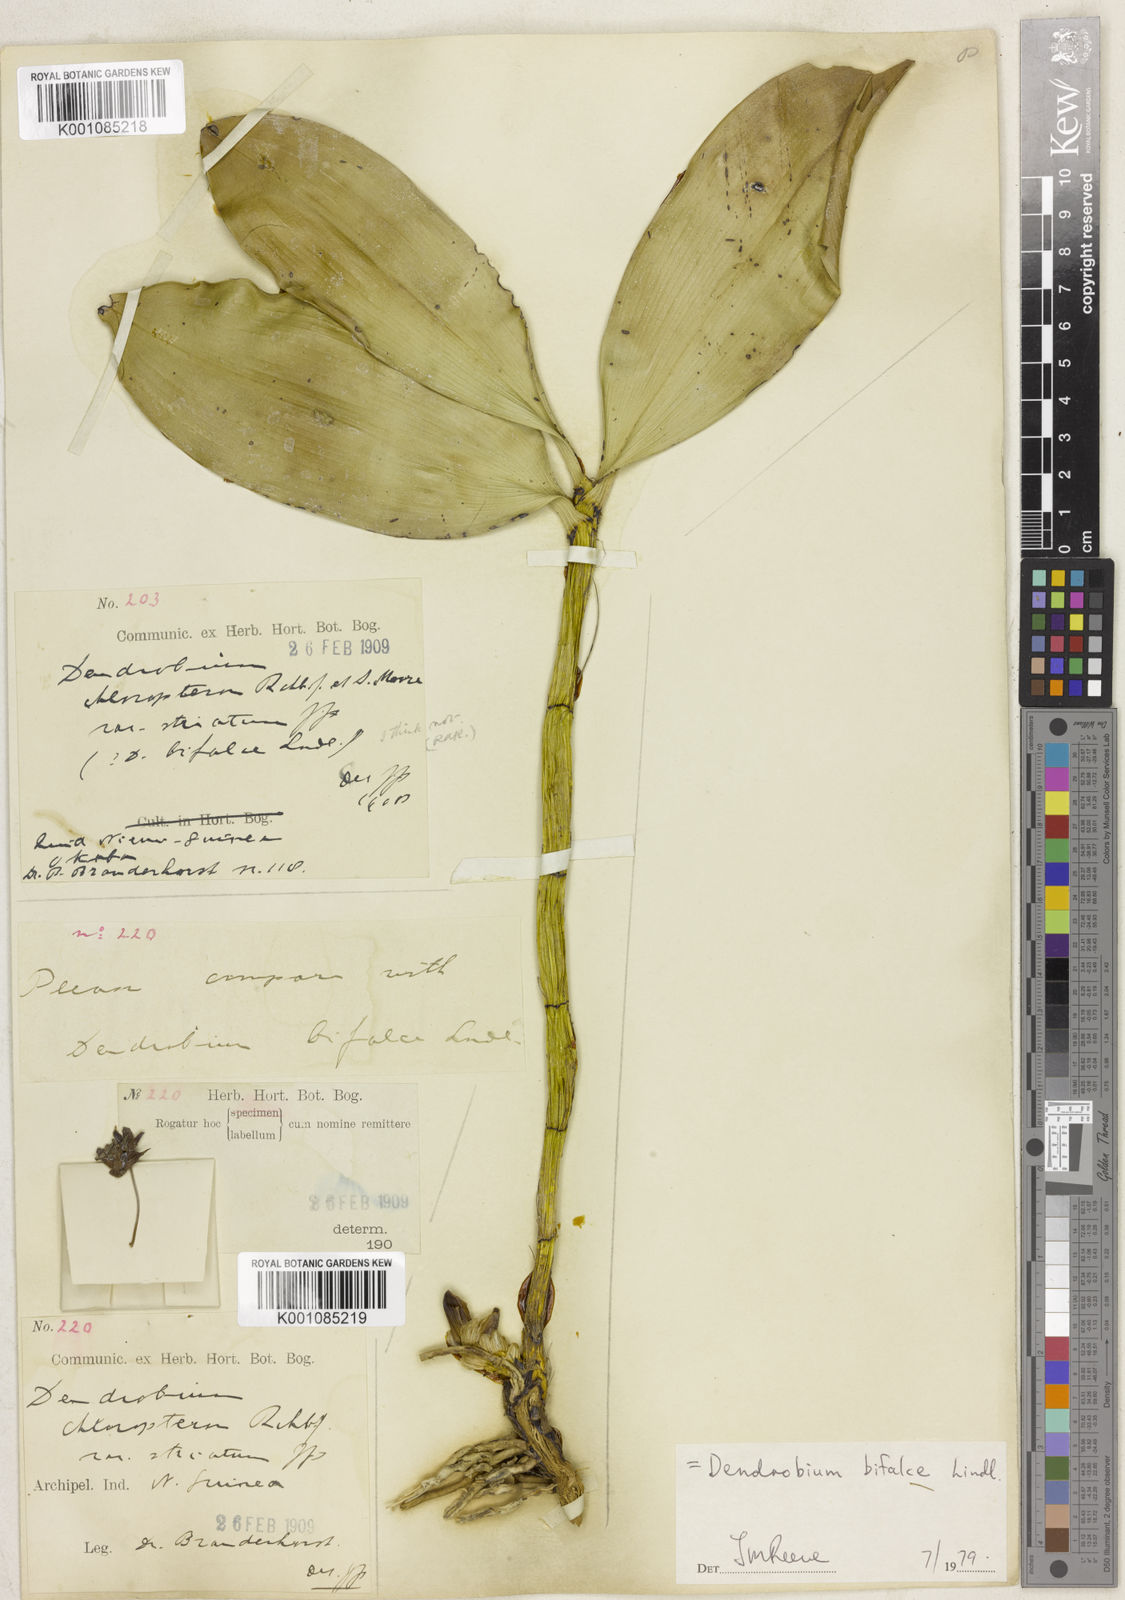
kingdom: Plantae
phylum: Tracheophyta
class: Liliopsida
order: Asparagales
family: Orchidaceae
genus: Dendrobium
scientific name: Dendrobium bifalce
